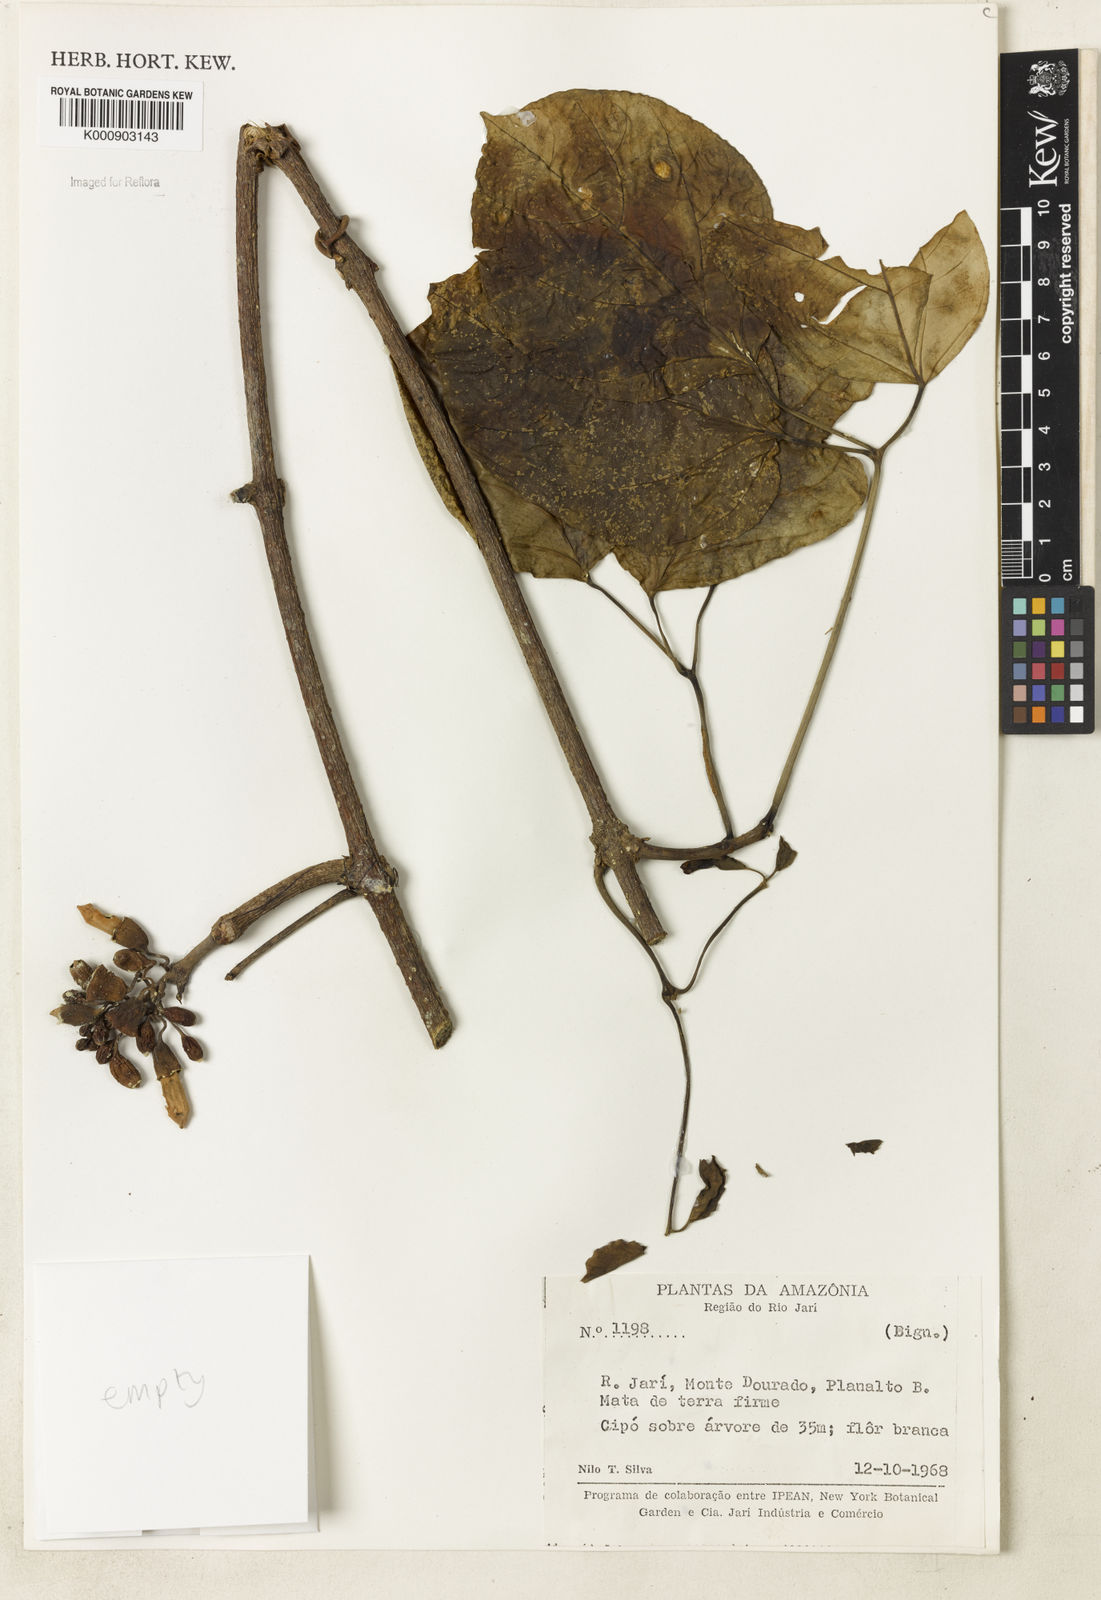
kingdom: Plantae
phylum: Tracheophyta
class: Magnoliopsida
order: Lamiales
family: Bignoniaceae
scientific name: Bignoniaceae
